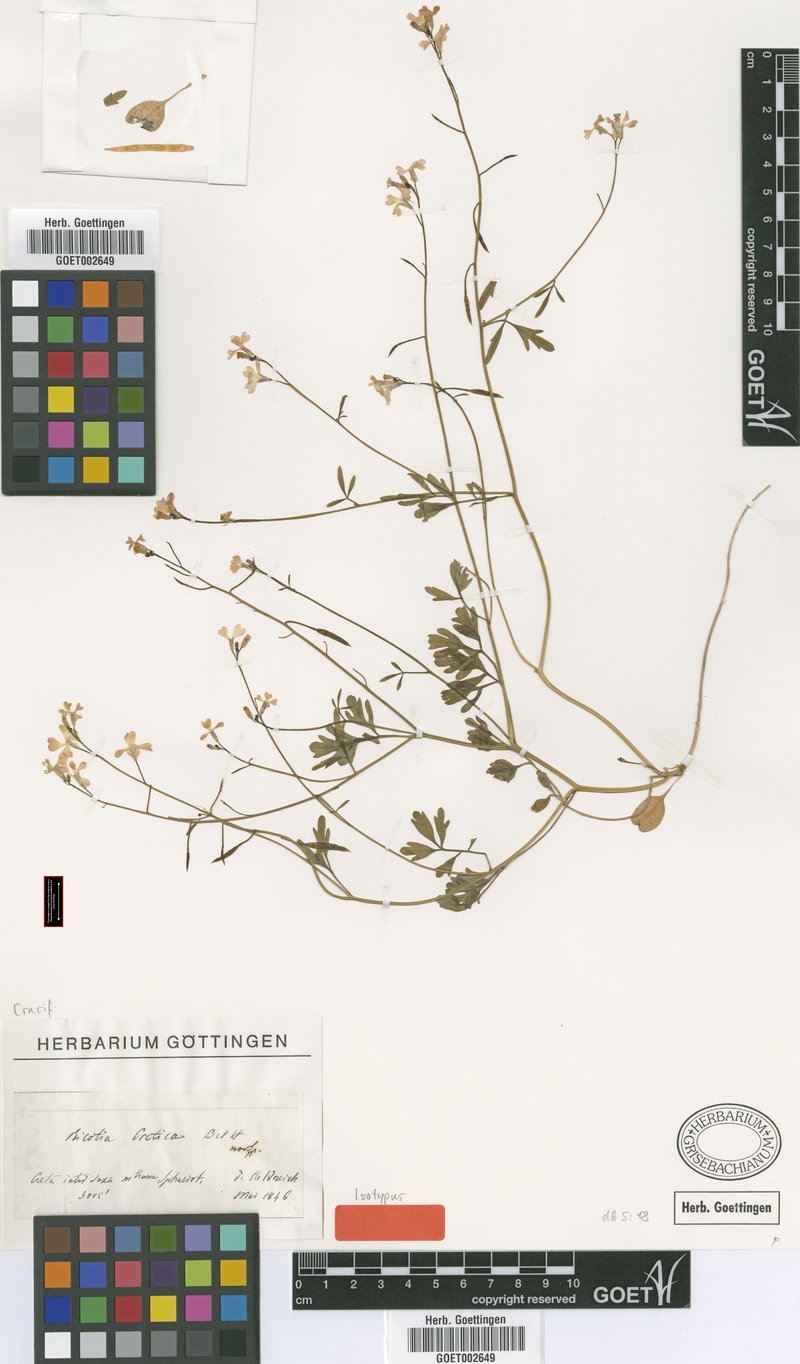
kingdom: Plantae
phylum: Tracheophyta
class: Magnoliopsida
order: Brassicales
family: Brassicaceae
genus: Ricotia
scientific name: Ricotia cretica
